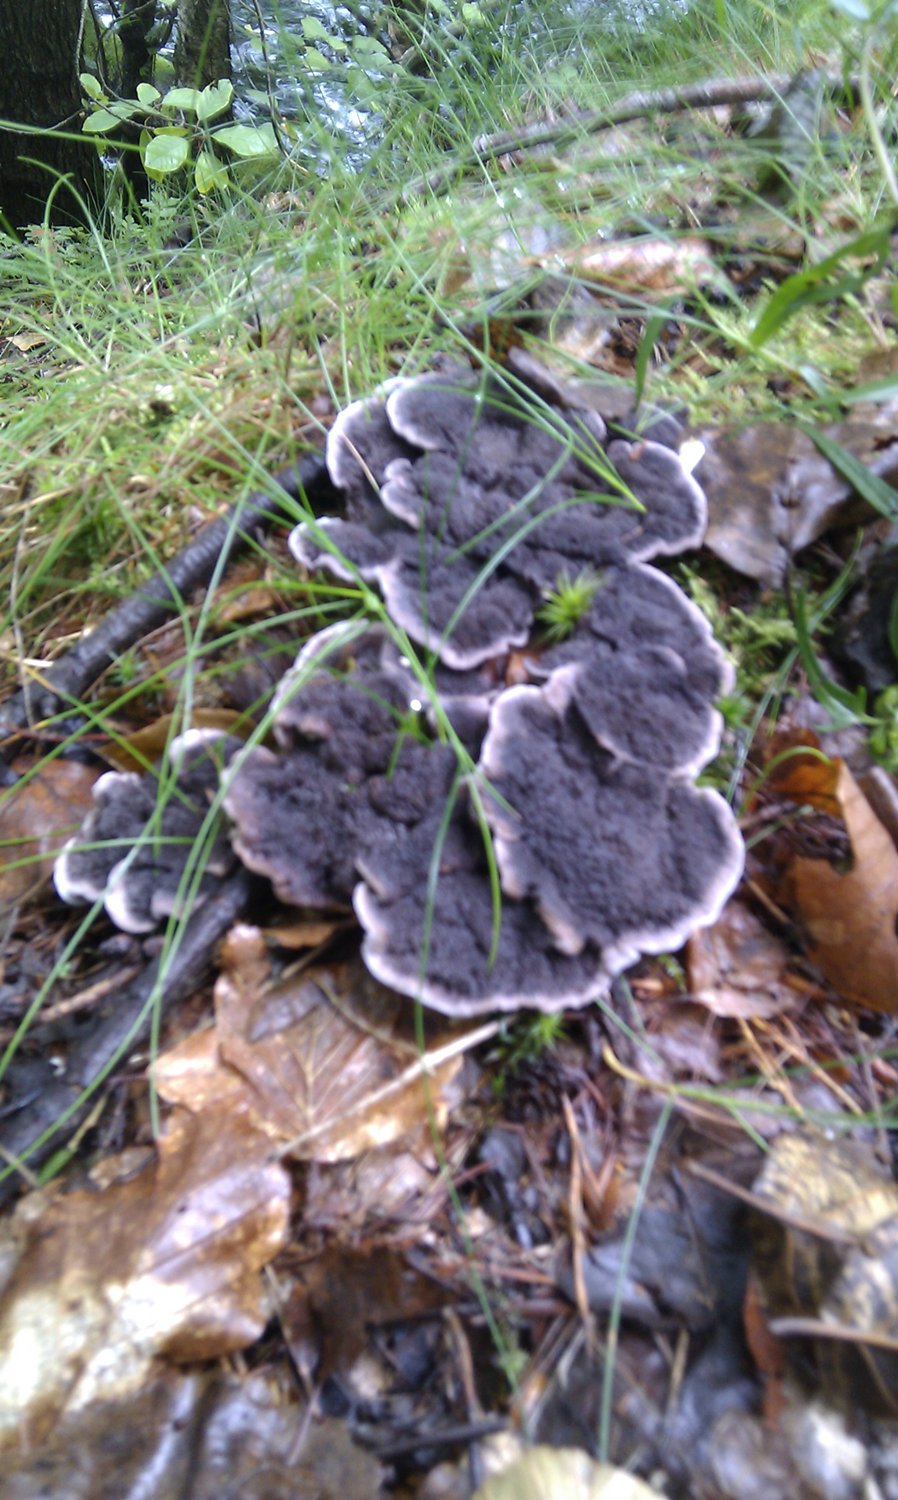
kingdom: Fungi
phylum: Basidiomycota
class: Agaricomycetes
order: Thelephorales
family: Thelephoraceae
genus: Phellodon
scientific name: Phellodon confluens
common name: pjaltet duftpigsvamp
